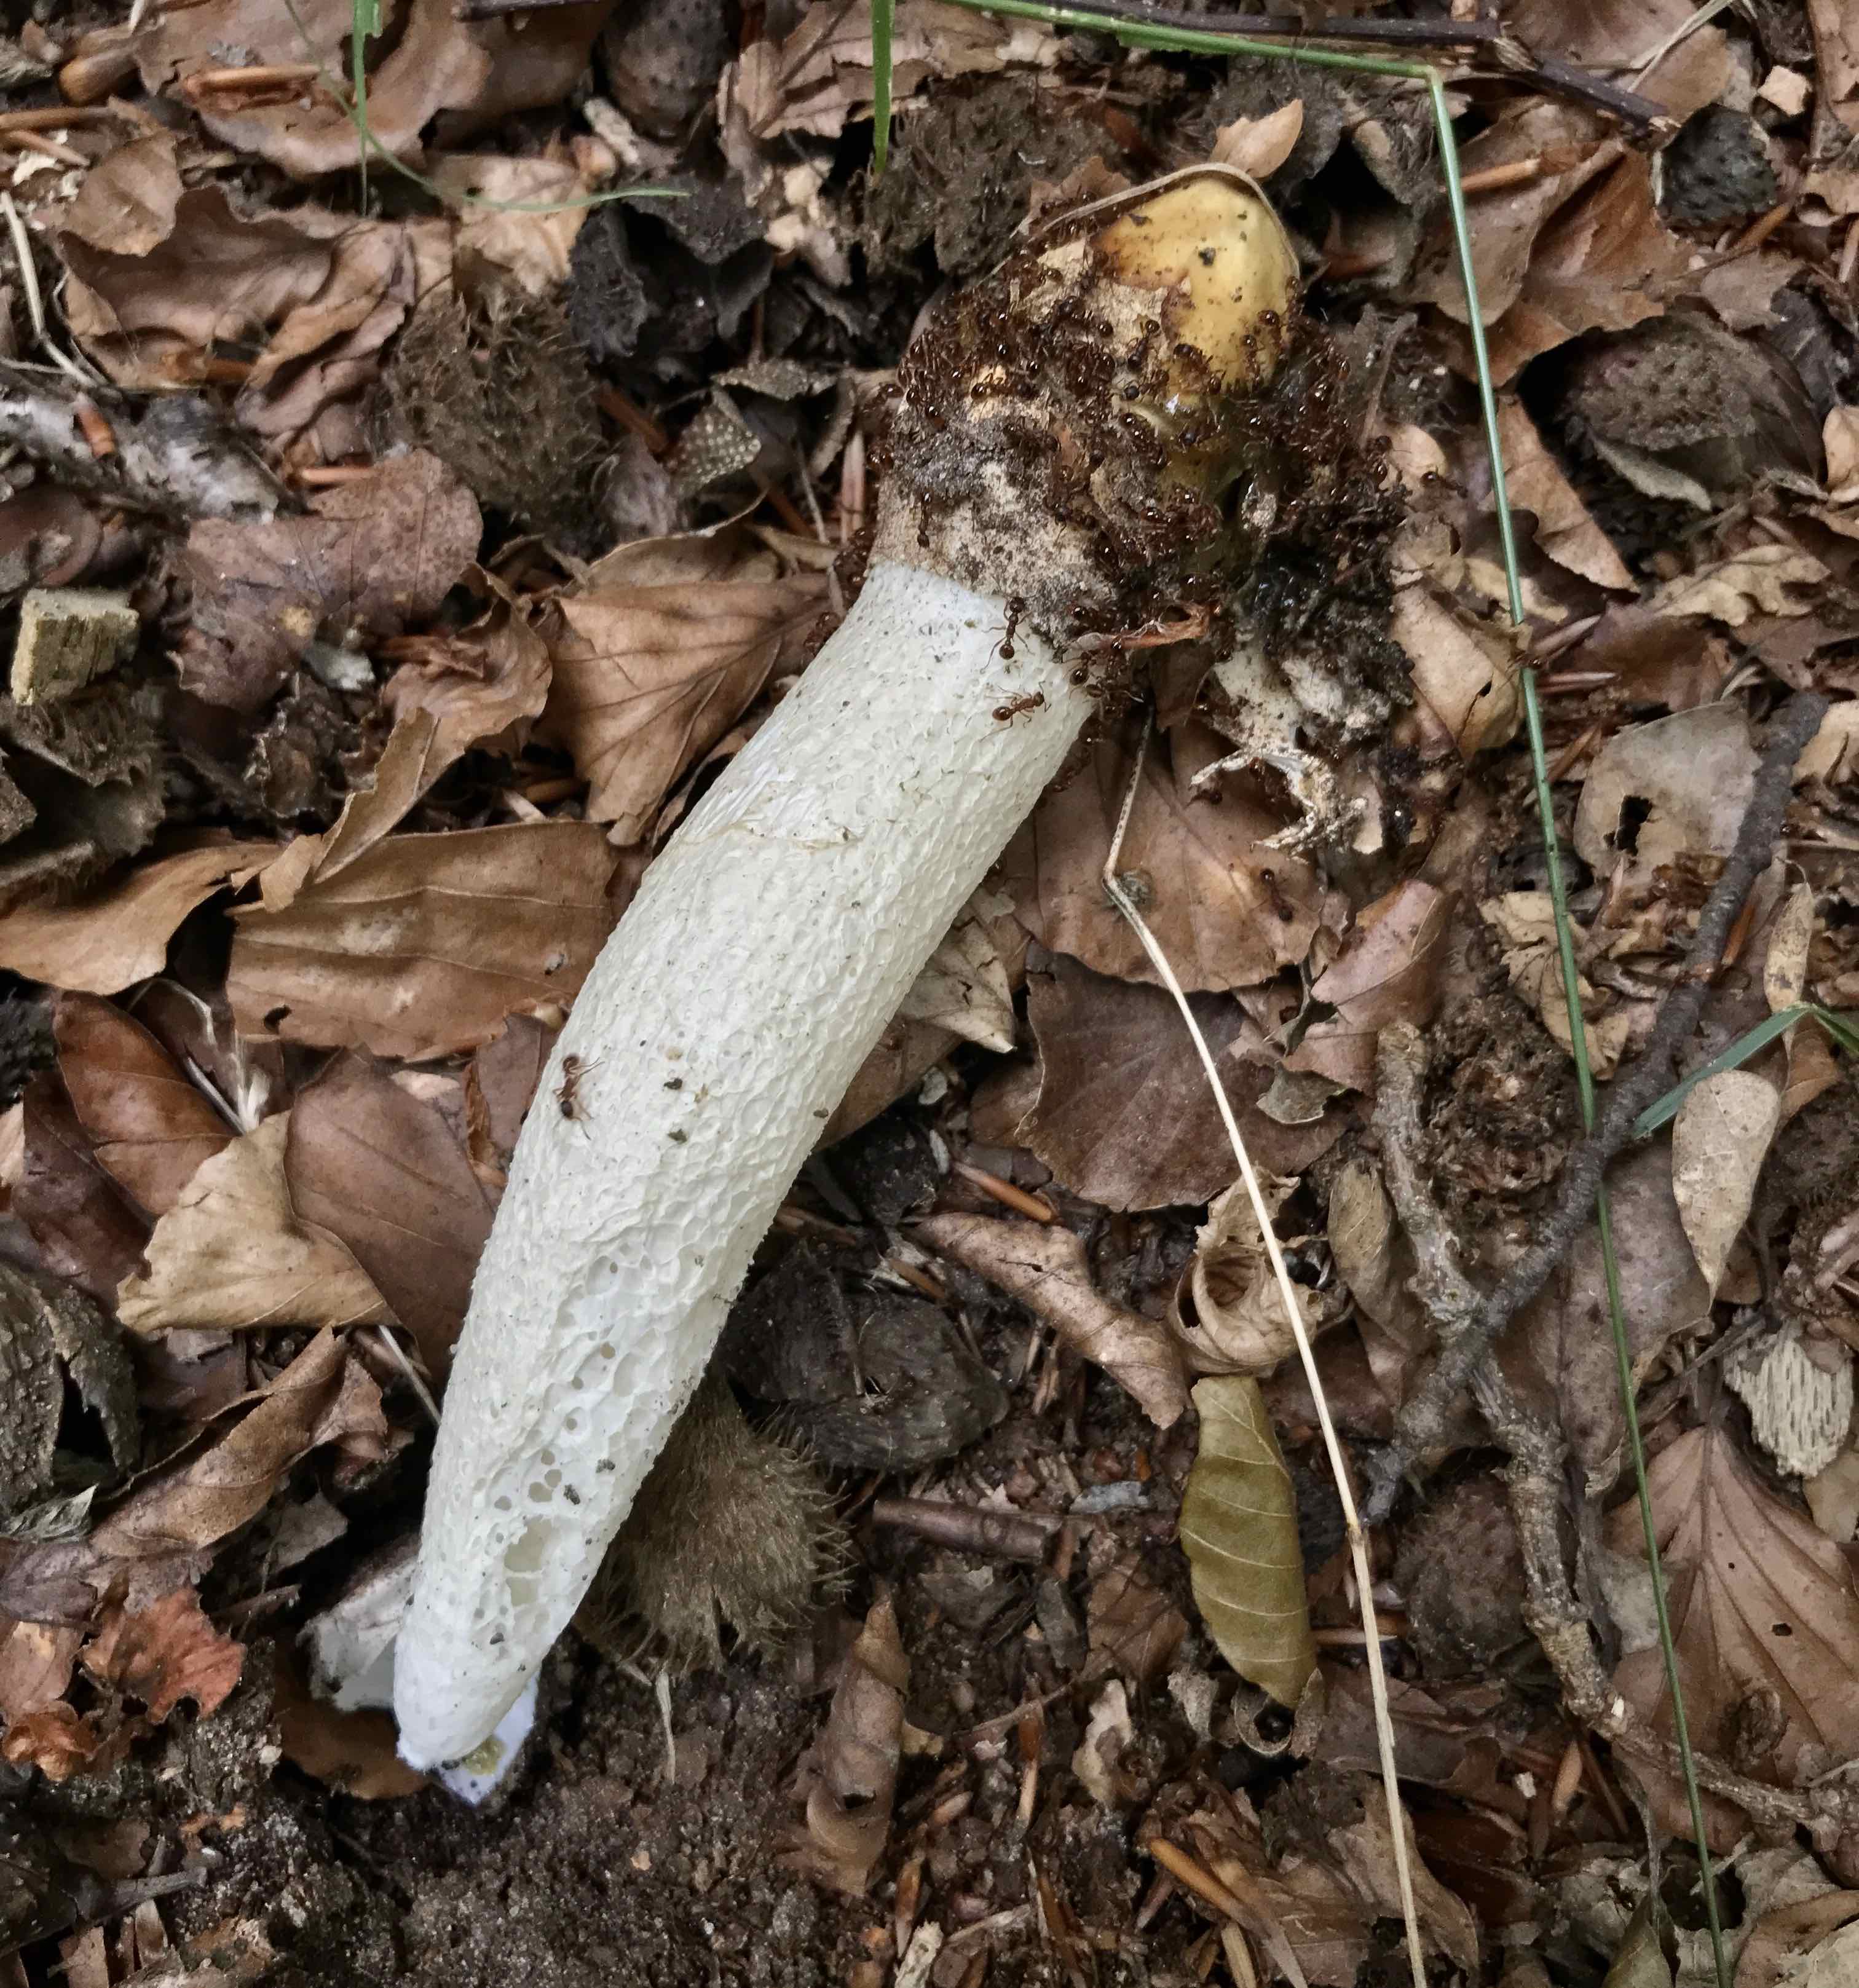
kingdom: Fungi
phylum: Basidiomycota
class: Agaricomycetes
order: Phallales
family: Phallaceae
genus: Phallus
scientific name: Phallus impudicus
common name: almindelig stinksvamp
